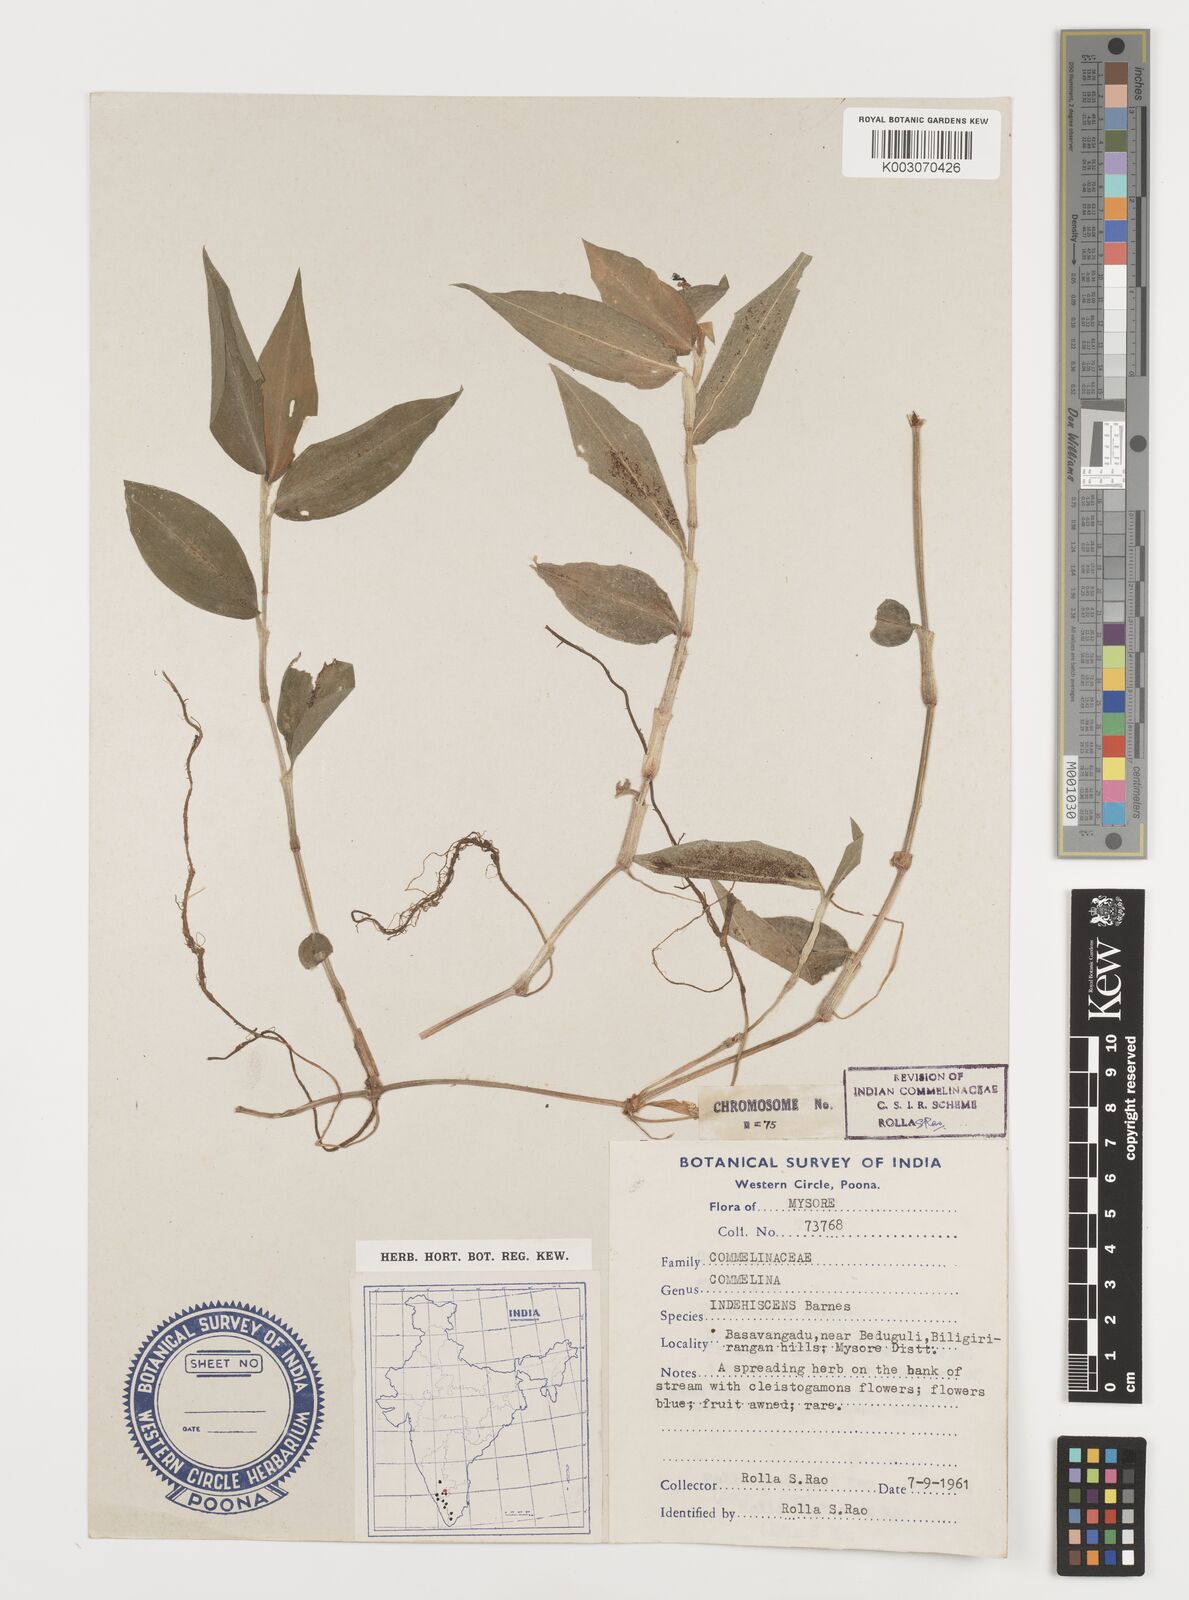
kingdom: Plantae
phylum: Tracheophyta
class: Liliopsida
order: Commelinales
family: Commelinaceae
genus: Commelina
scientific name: Commelina indehiscens
